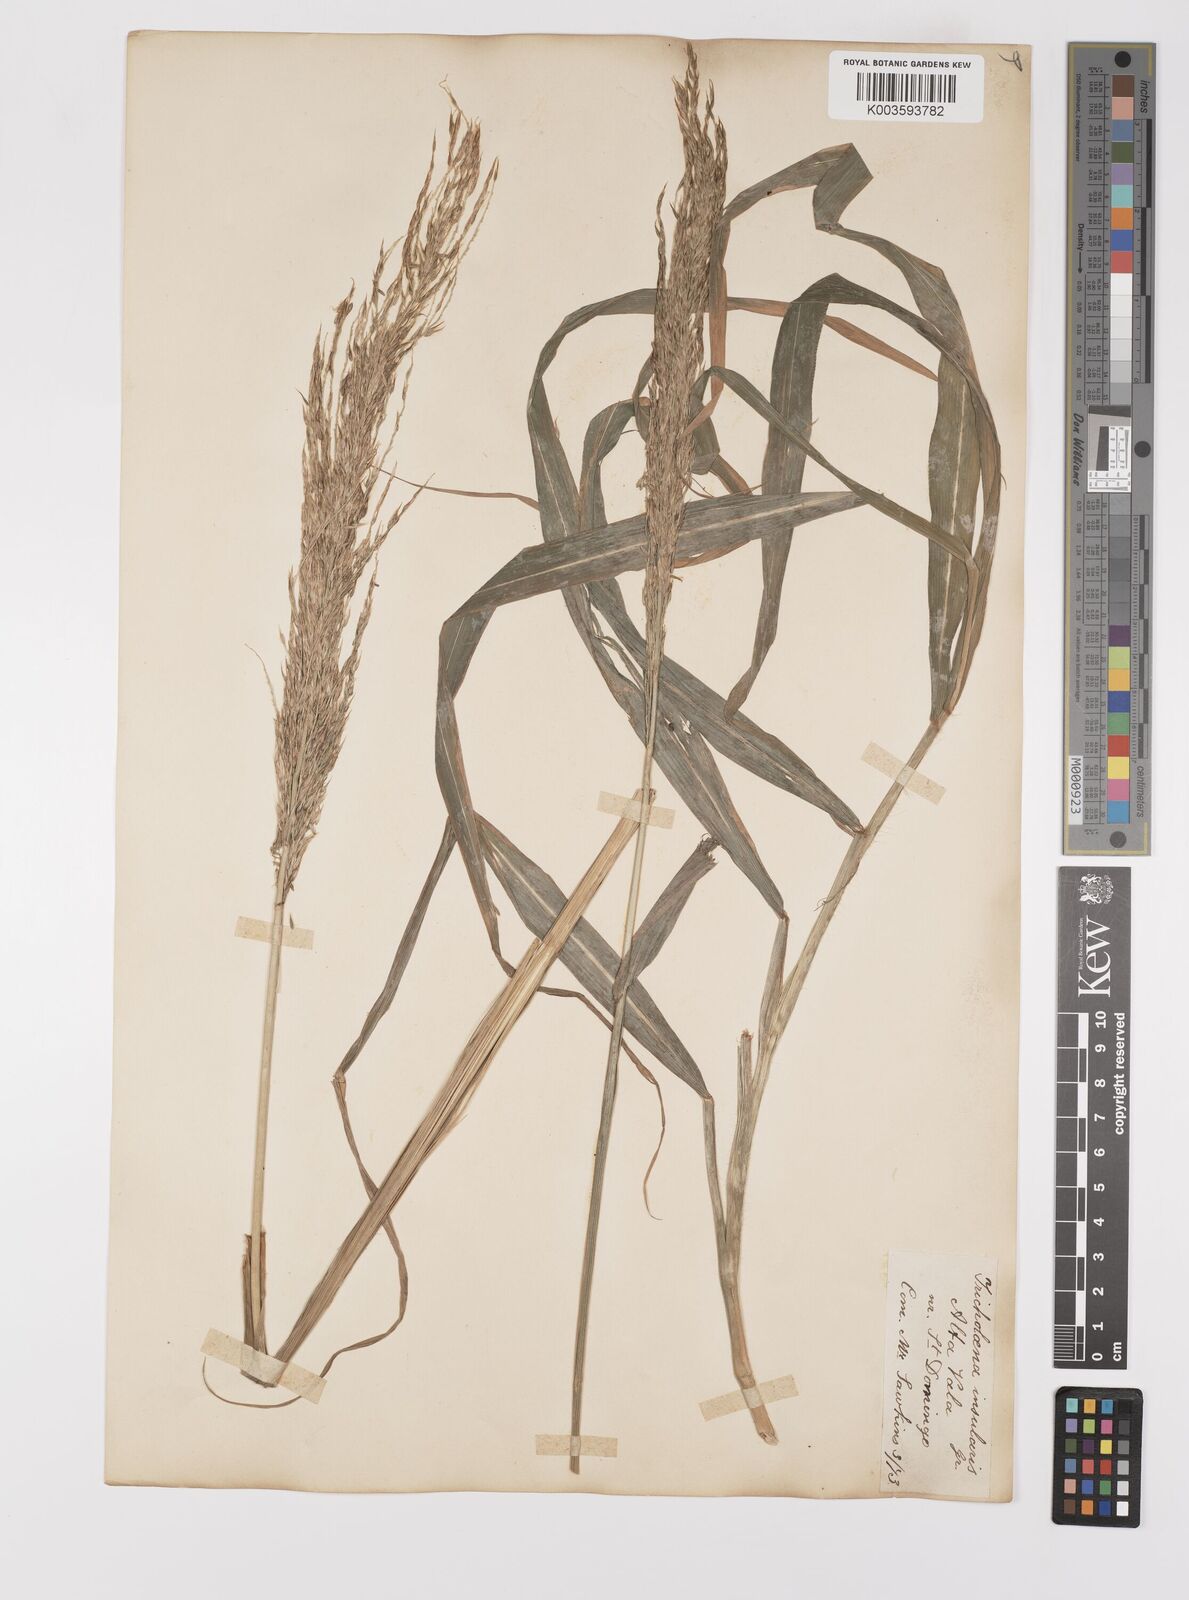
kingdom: Plantae
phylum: Tracheophyta
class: Liliopsida
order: Poales
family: Poaceae
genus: Digitaria
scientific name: Digitaria insularis
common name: Sourgrass
